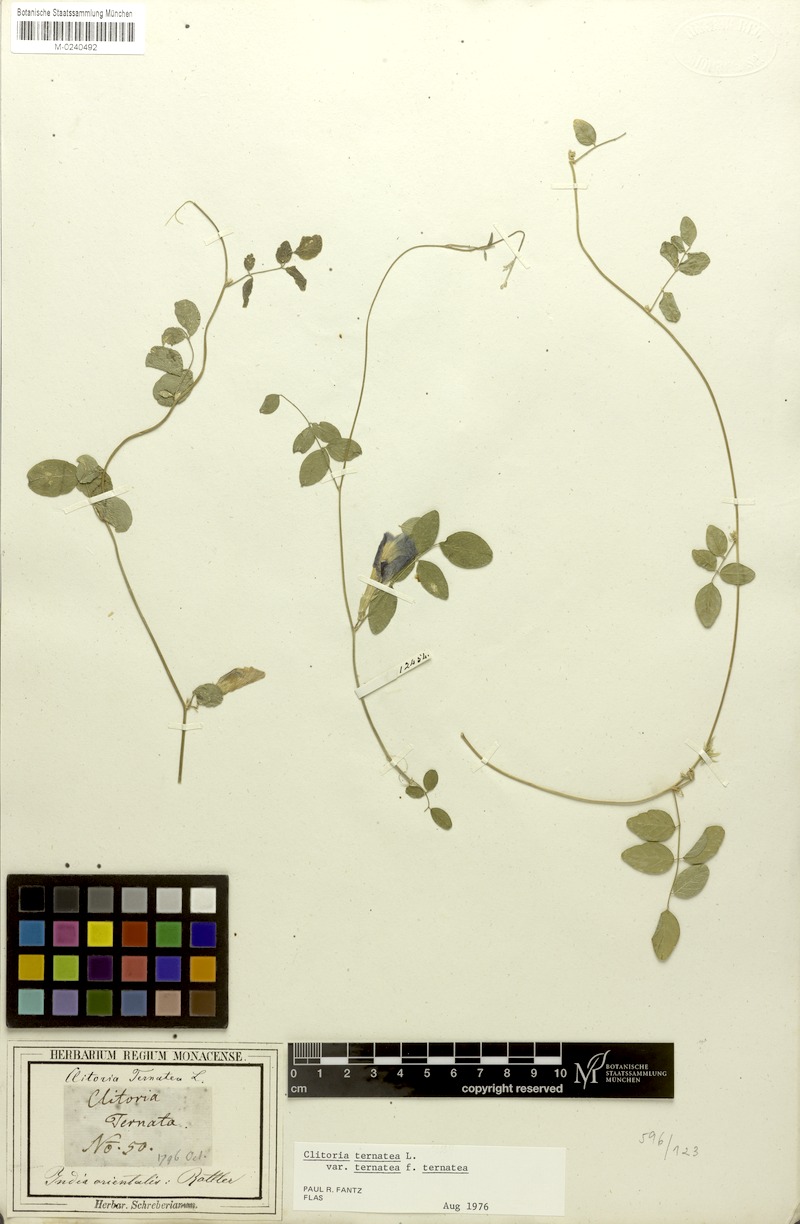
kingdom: Plantae
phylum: Tracheophyta
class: Magnoliopsida
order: Fabales
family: Fabaceae
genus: Clitoria
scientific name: Clitoria ternatea
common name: Asian pigeonwings
